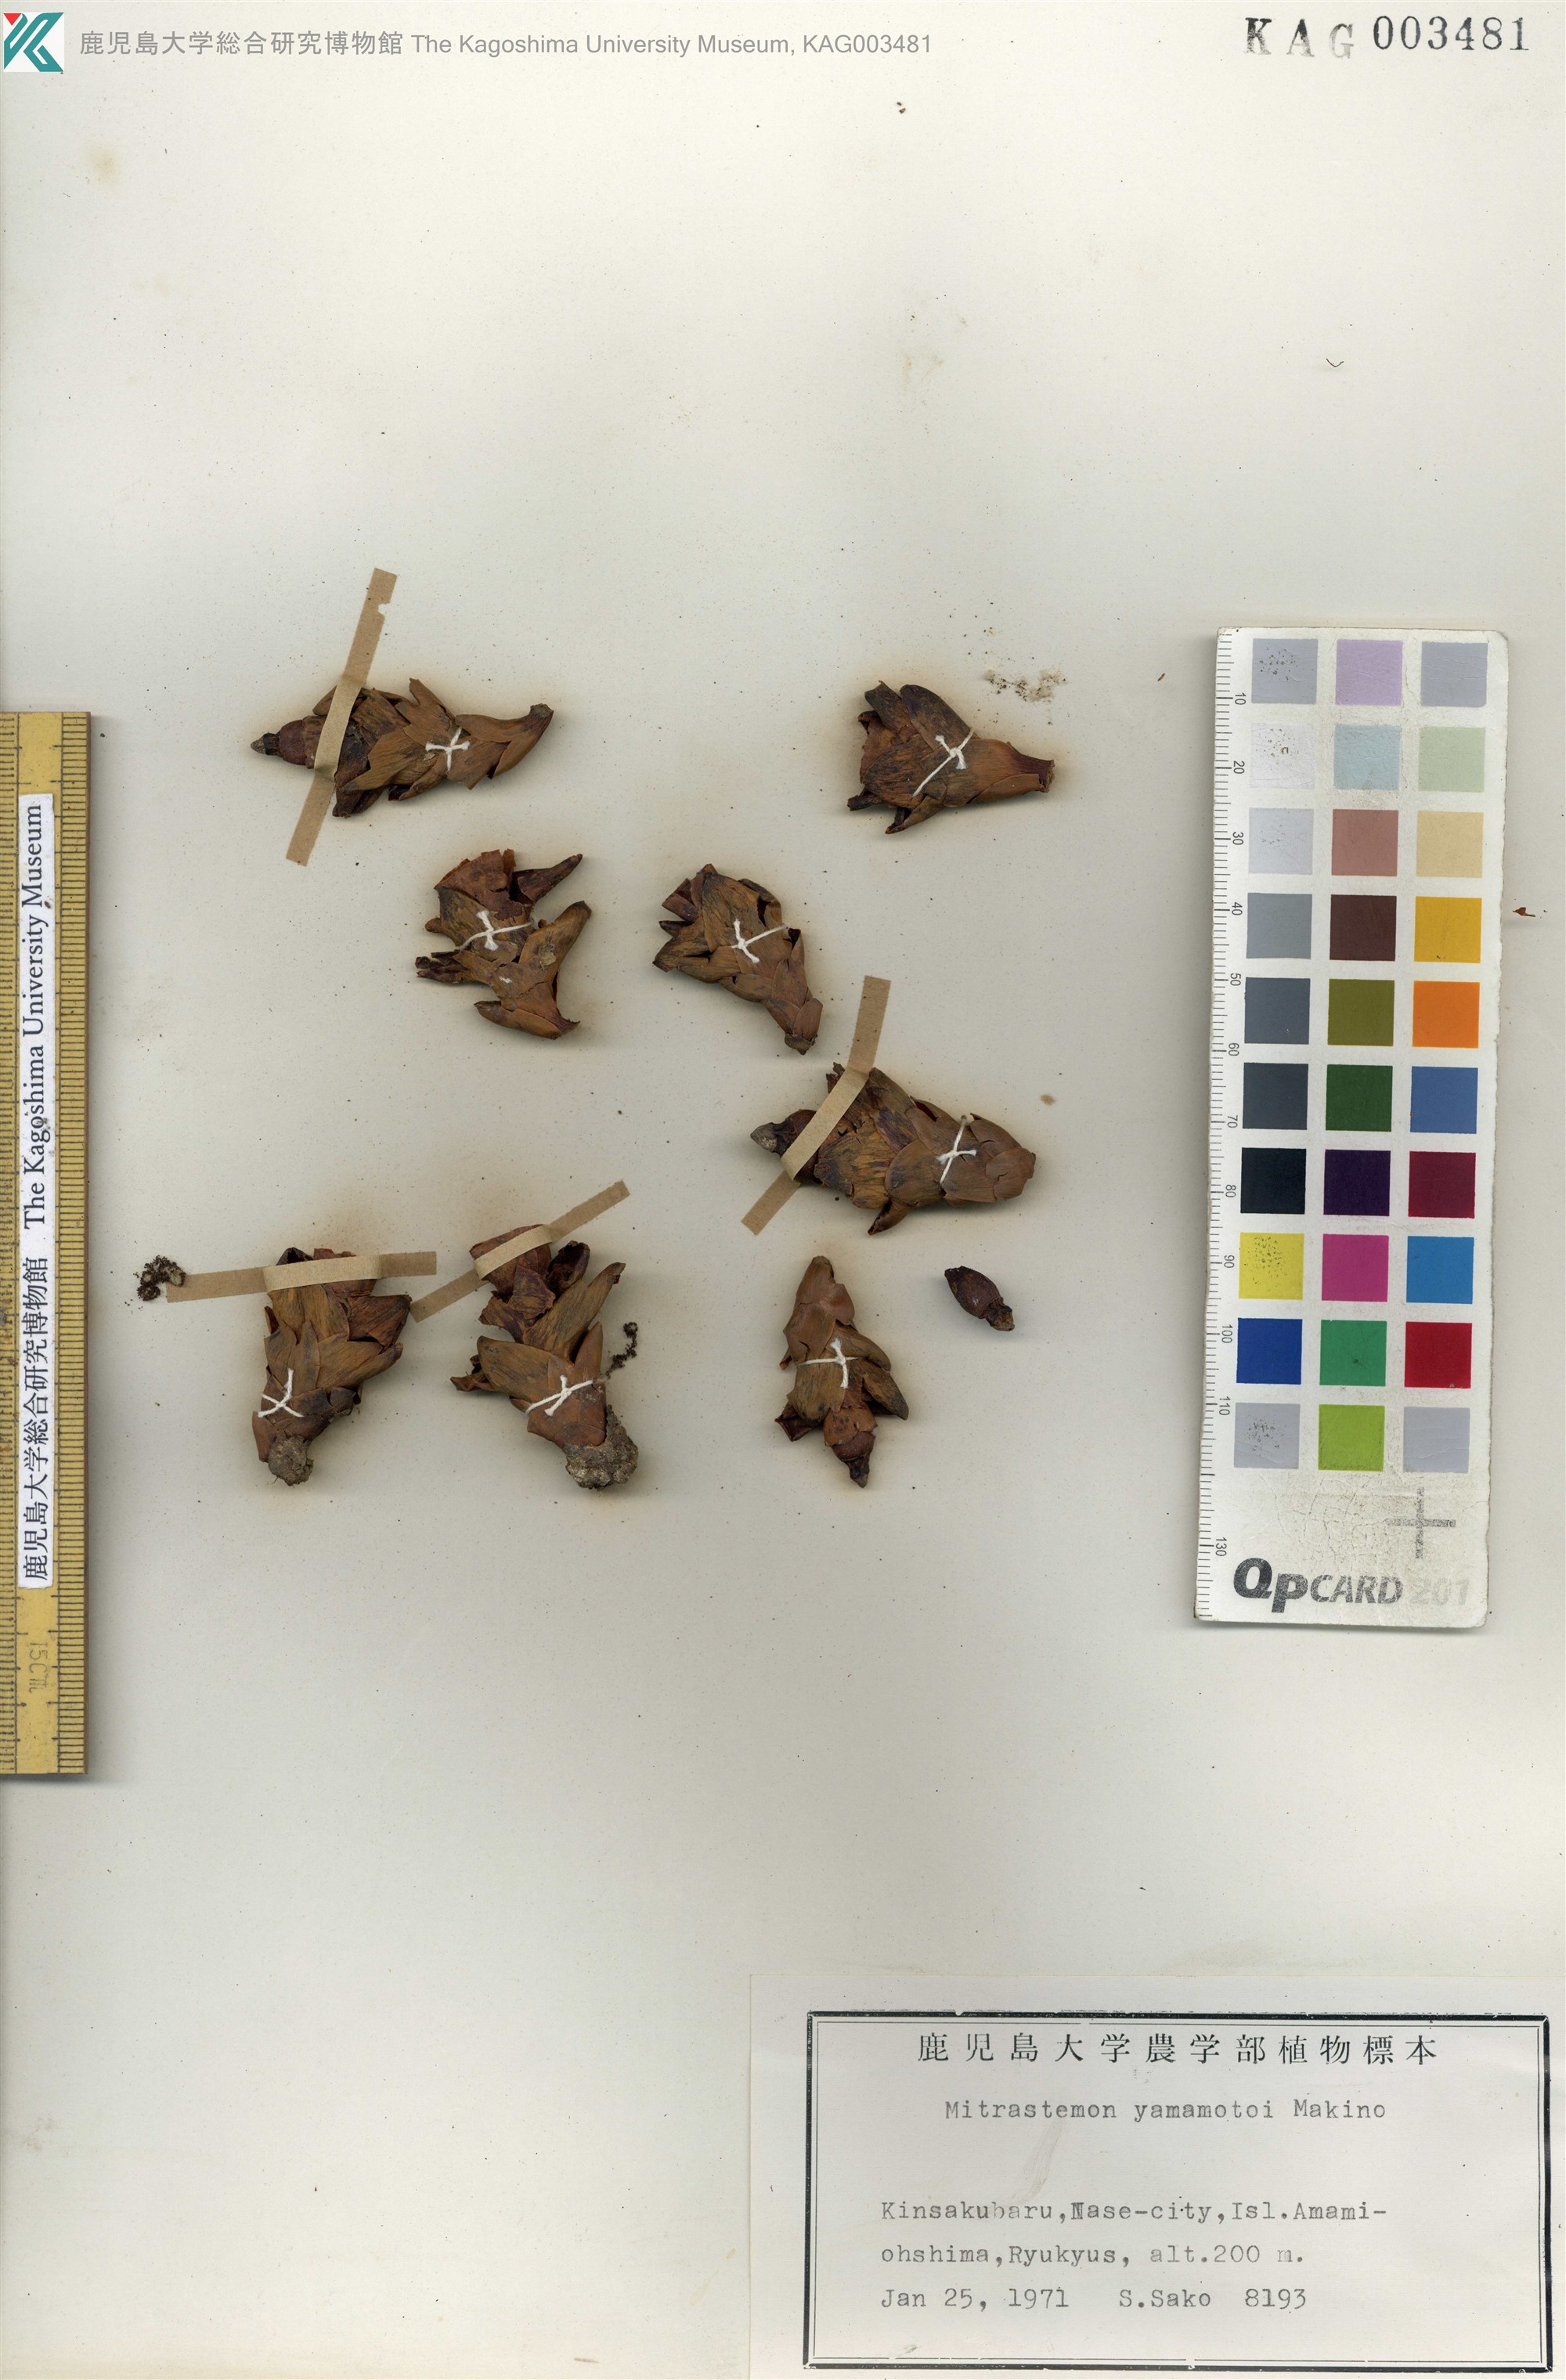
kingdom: Plantae
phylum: Tracheophyta
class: Magnoliopsida
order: Ericales
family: Mitrastemonaceae
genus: Mitrastemon
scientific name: Mitrastemon yamamotoi
